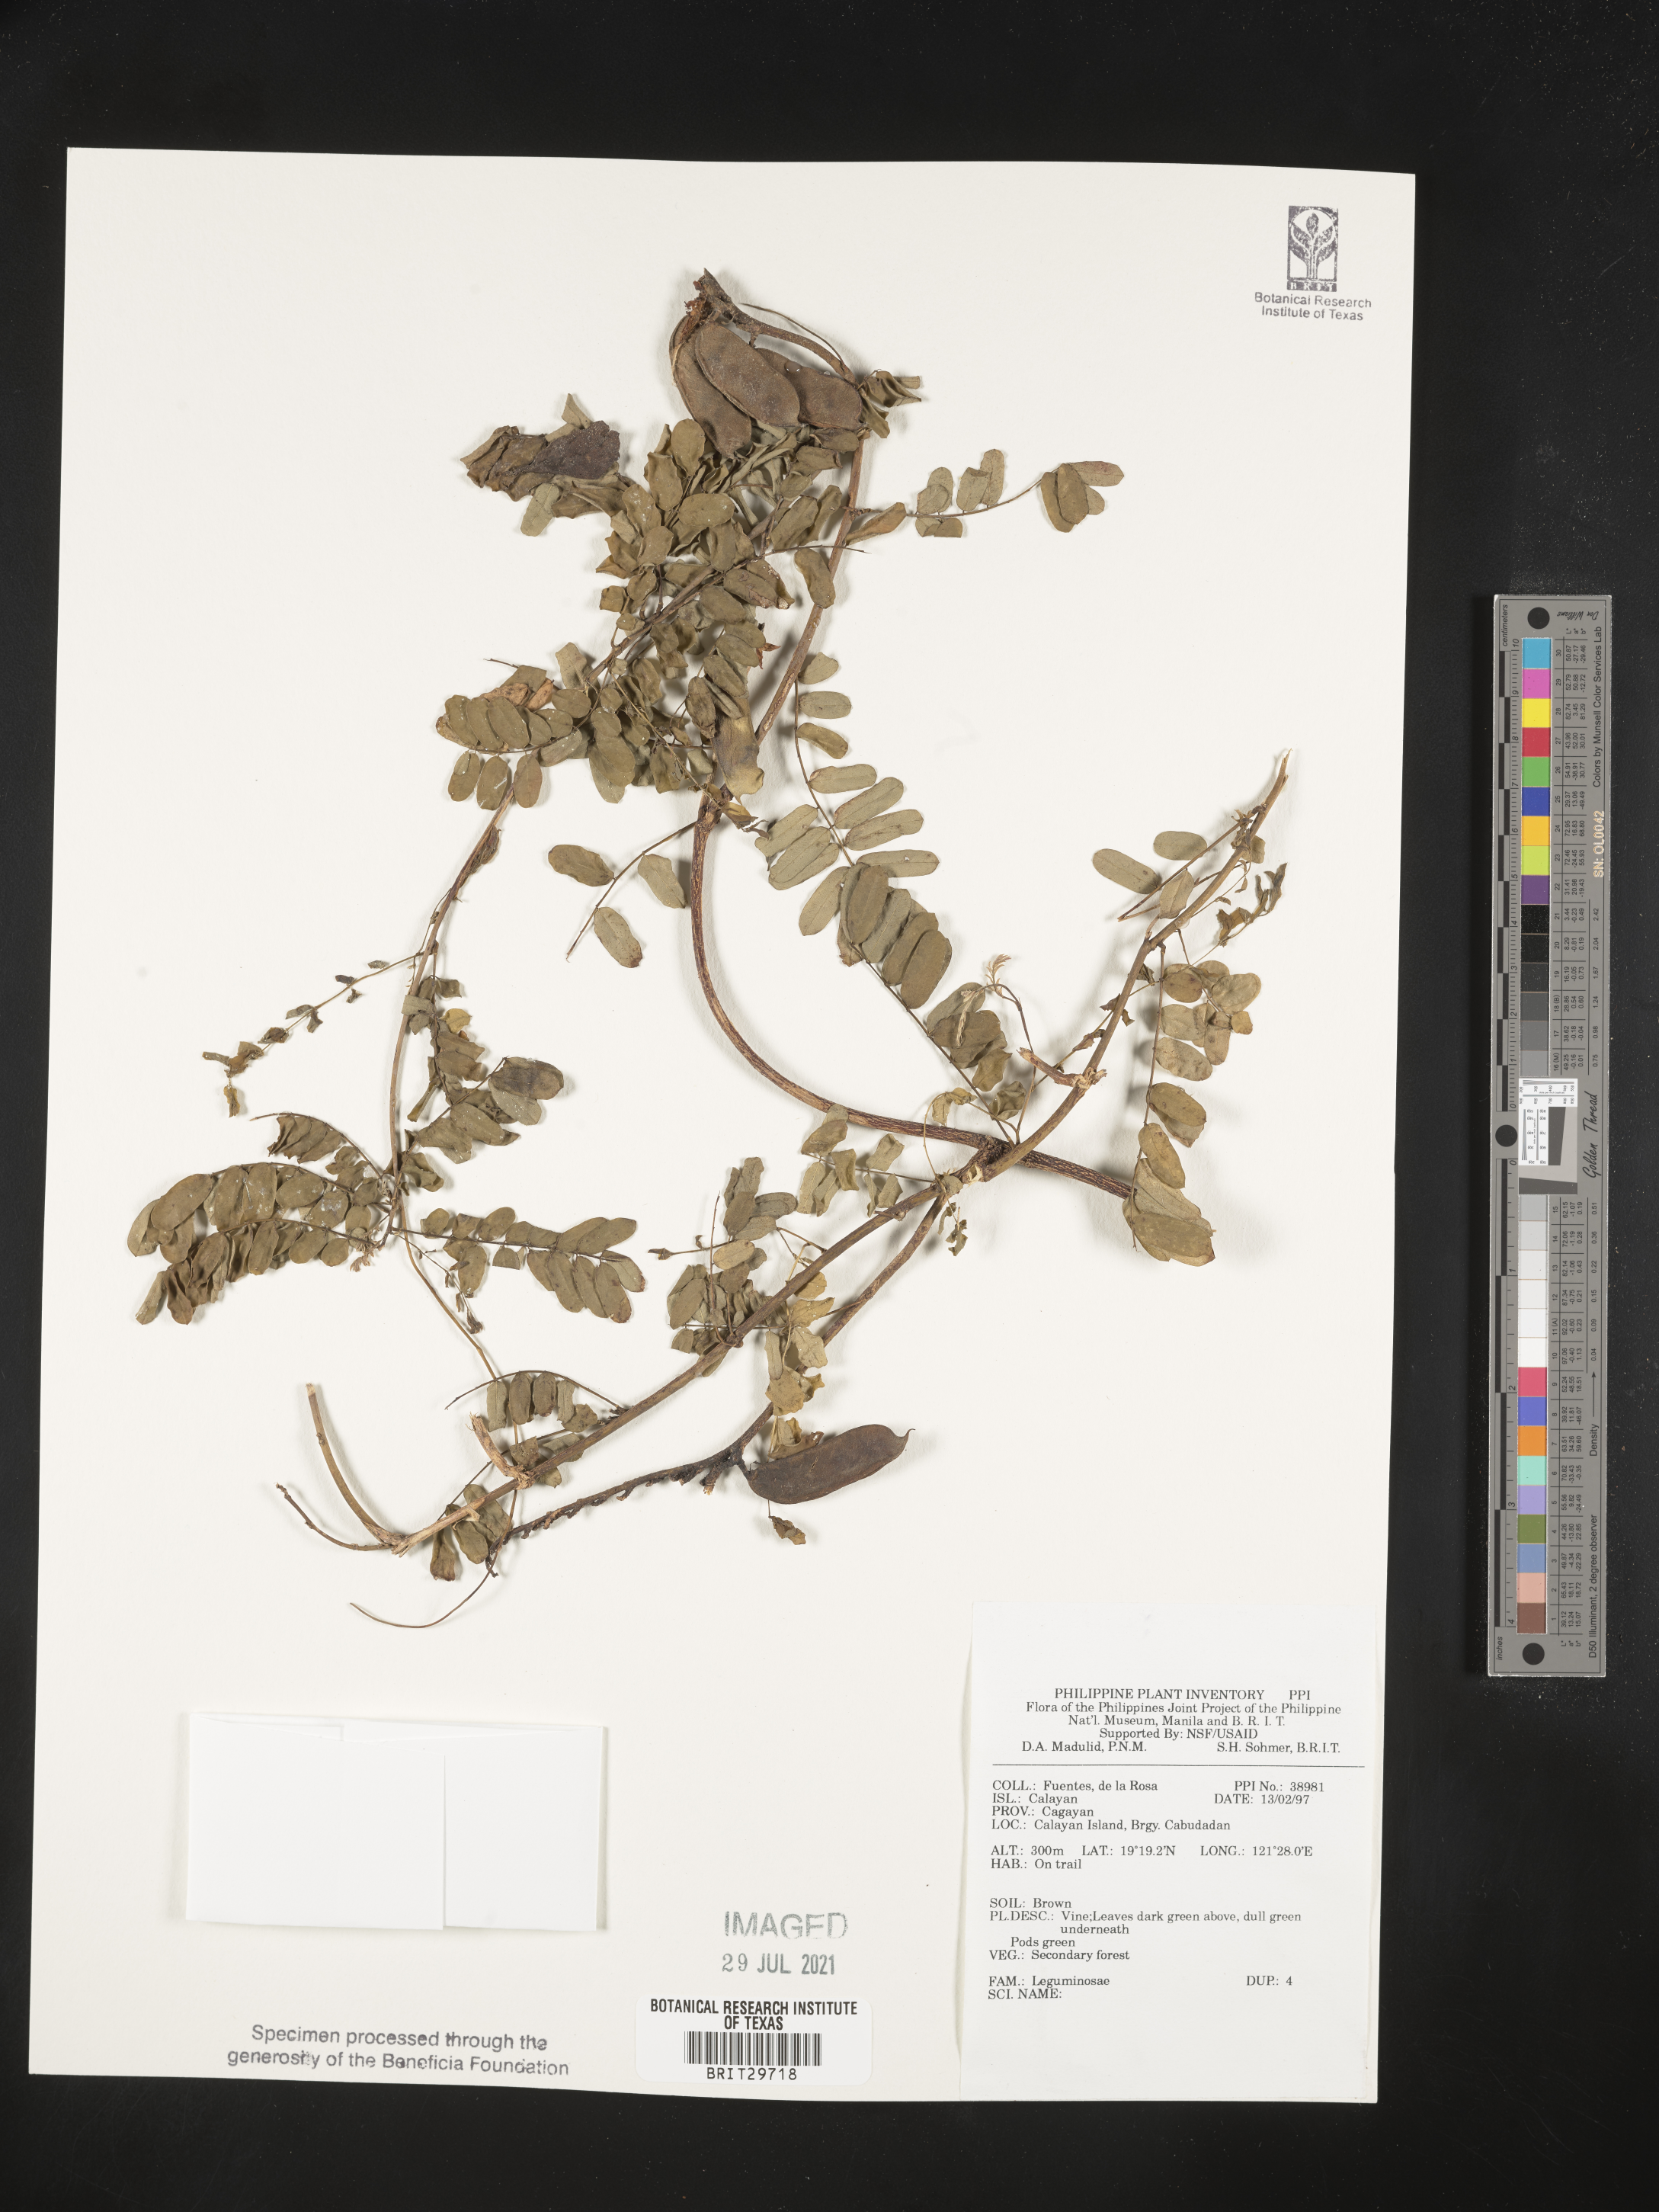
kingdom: Plantae
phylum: Tracheophyta
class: Magnoliopsida
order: Fabales
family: Fabaceae
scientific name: Fabaceae
